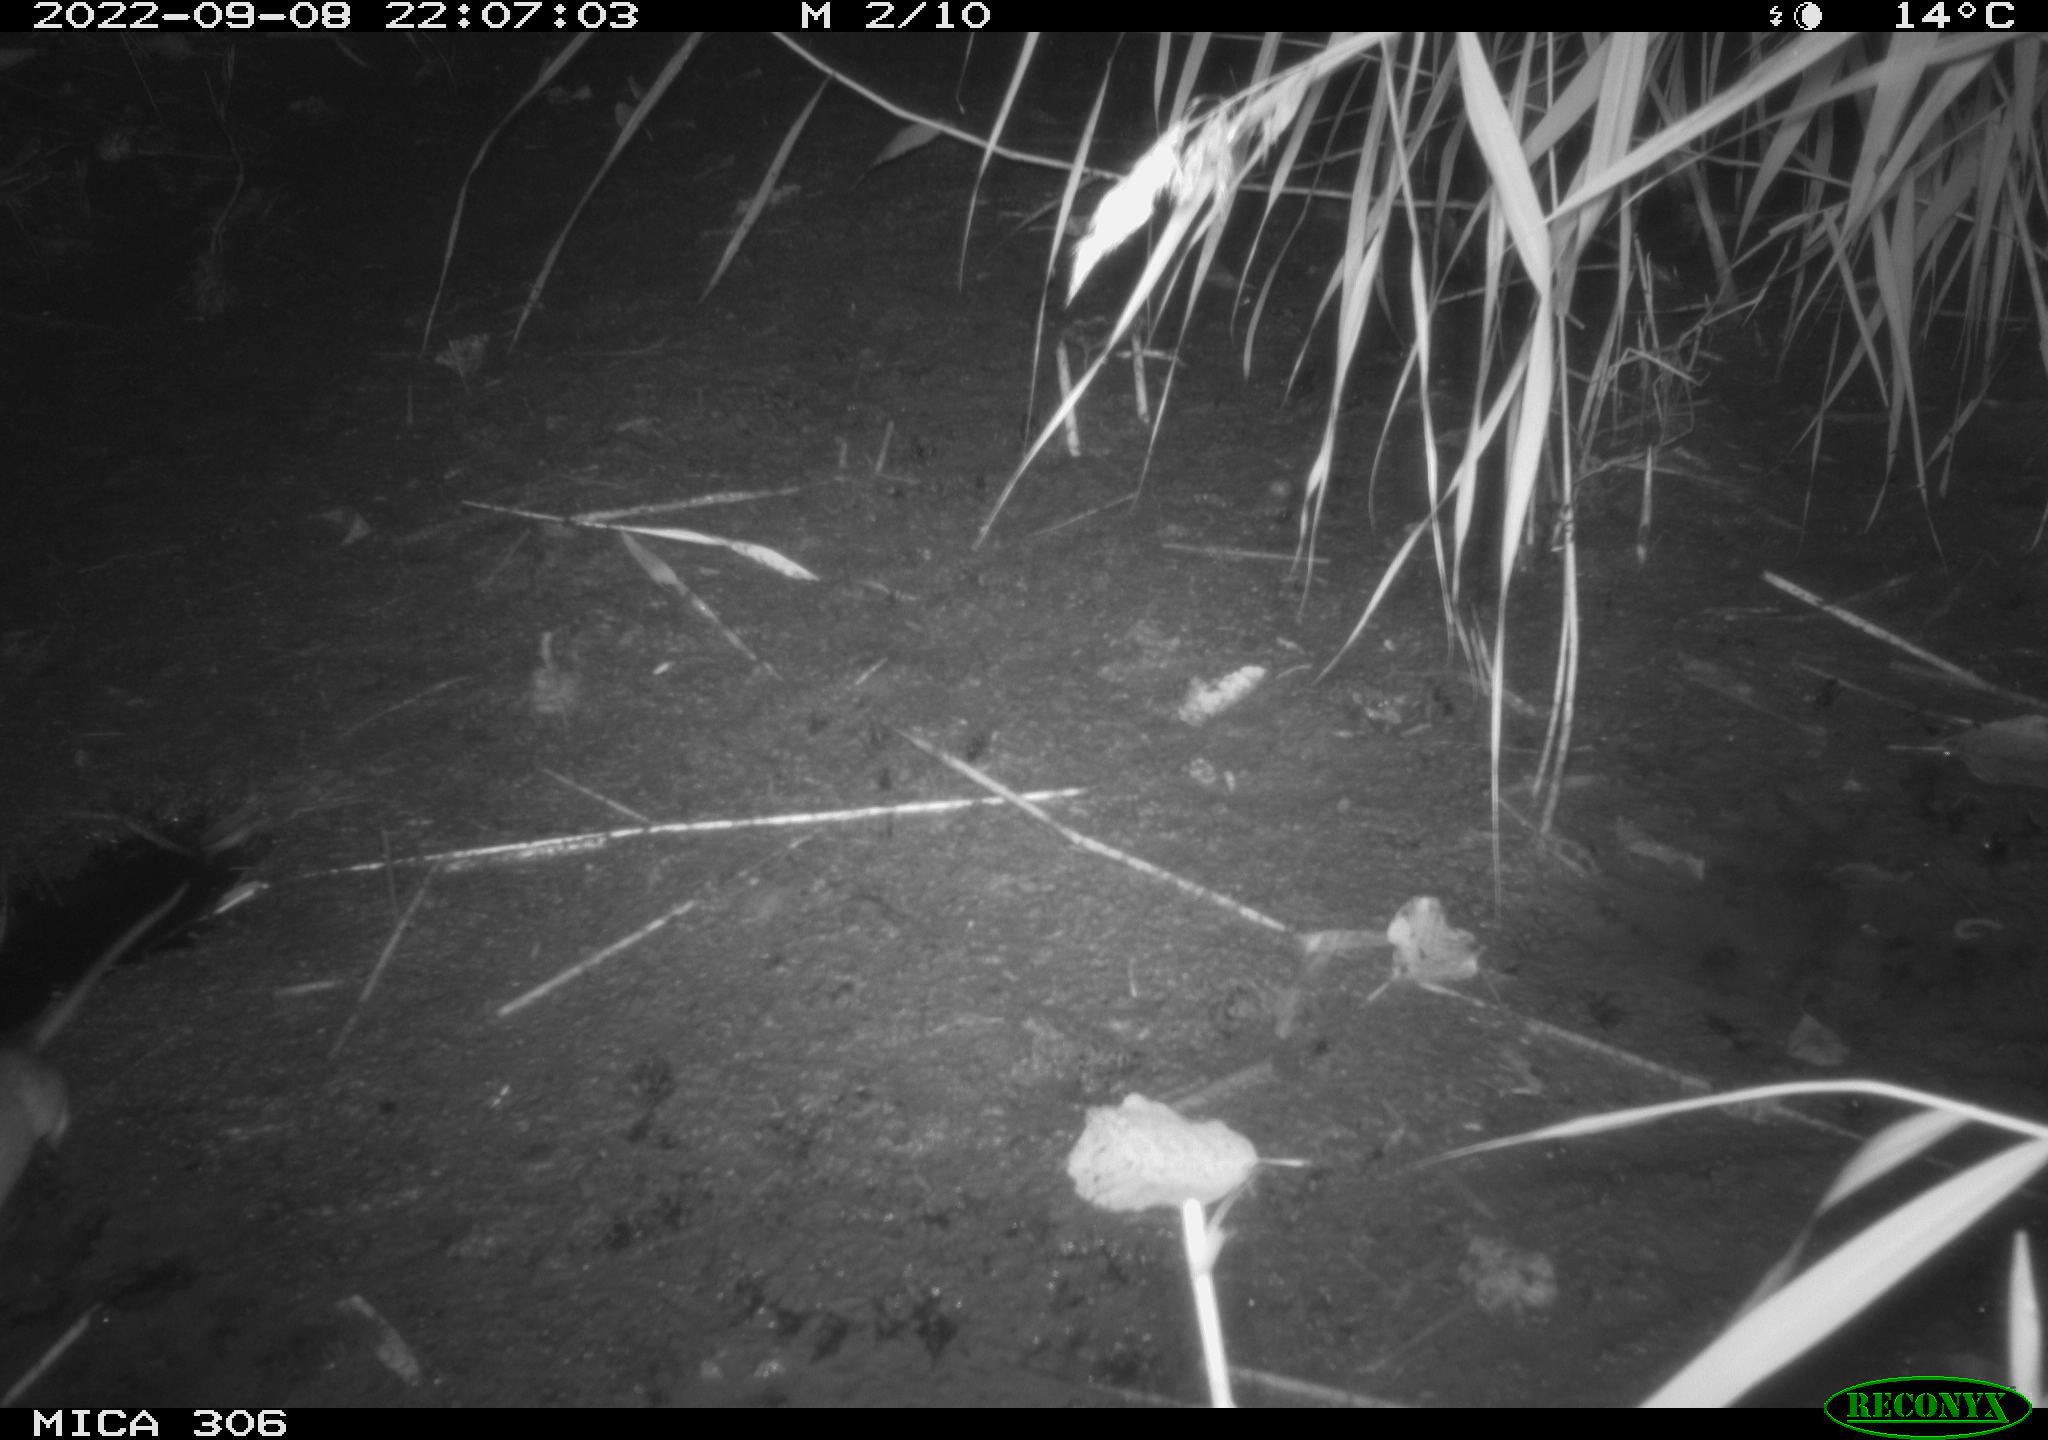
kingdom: Animalia
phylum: Chordata
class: Mammalia
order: Rodentia
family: Muridae
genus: Rattus
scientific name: Rattus norvegicus
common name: Brown rat
